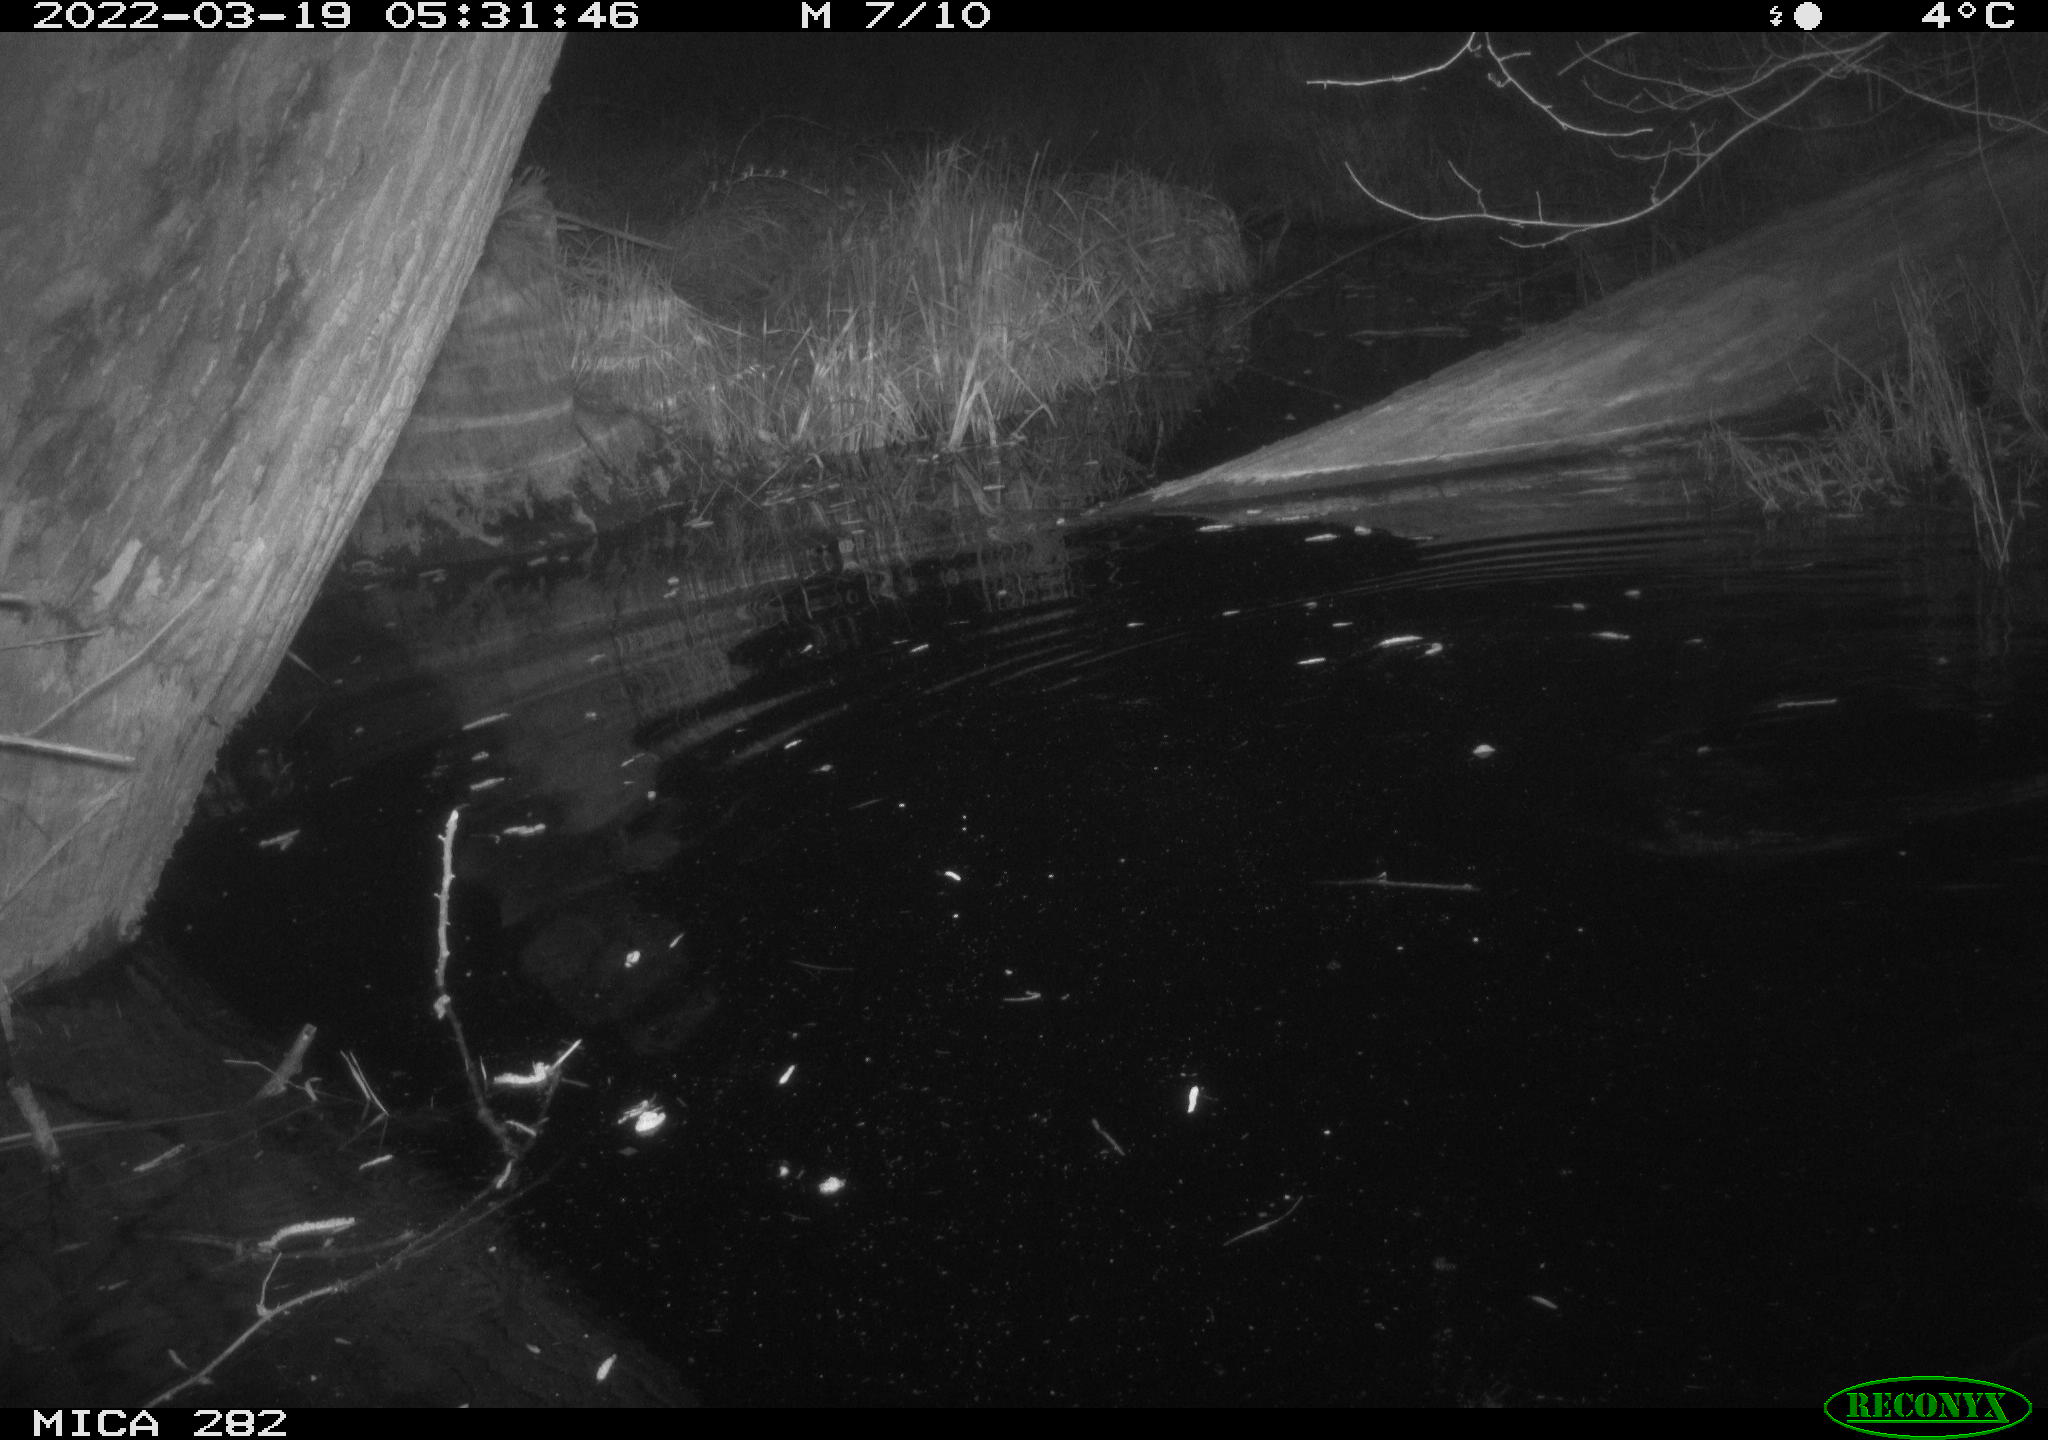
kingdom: Animalia
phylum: Chordata
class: Mammalia
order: Rodentia
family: Castoridae
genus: Castor
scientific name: Castor fiber
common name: Eurasian beaver
